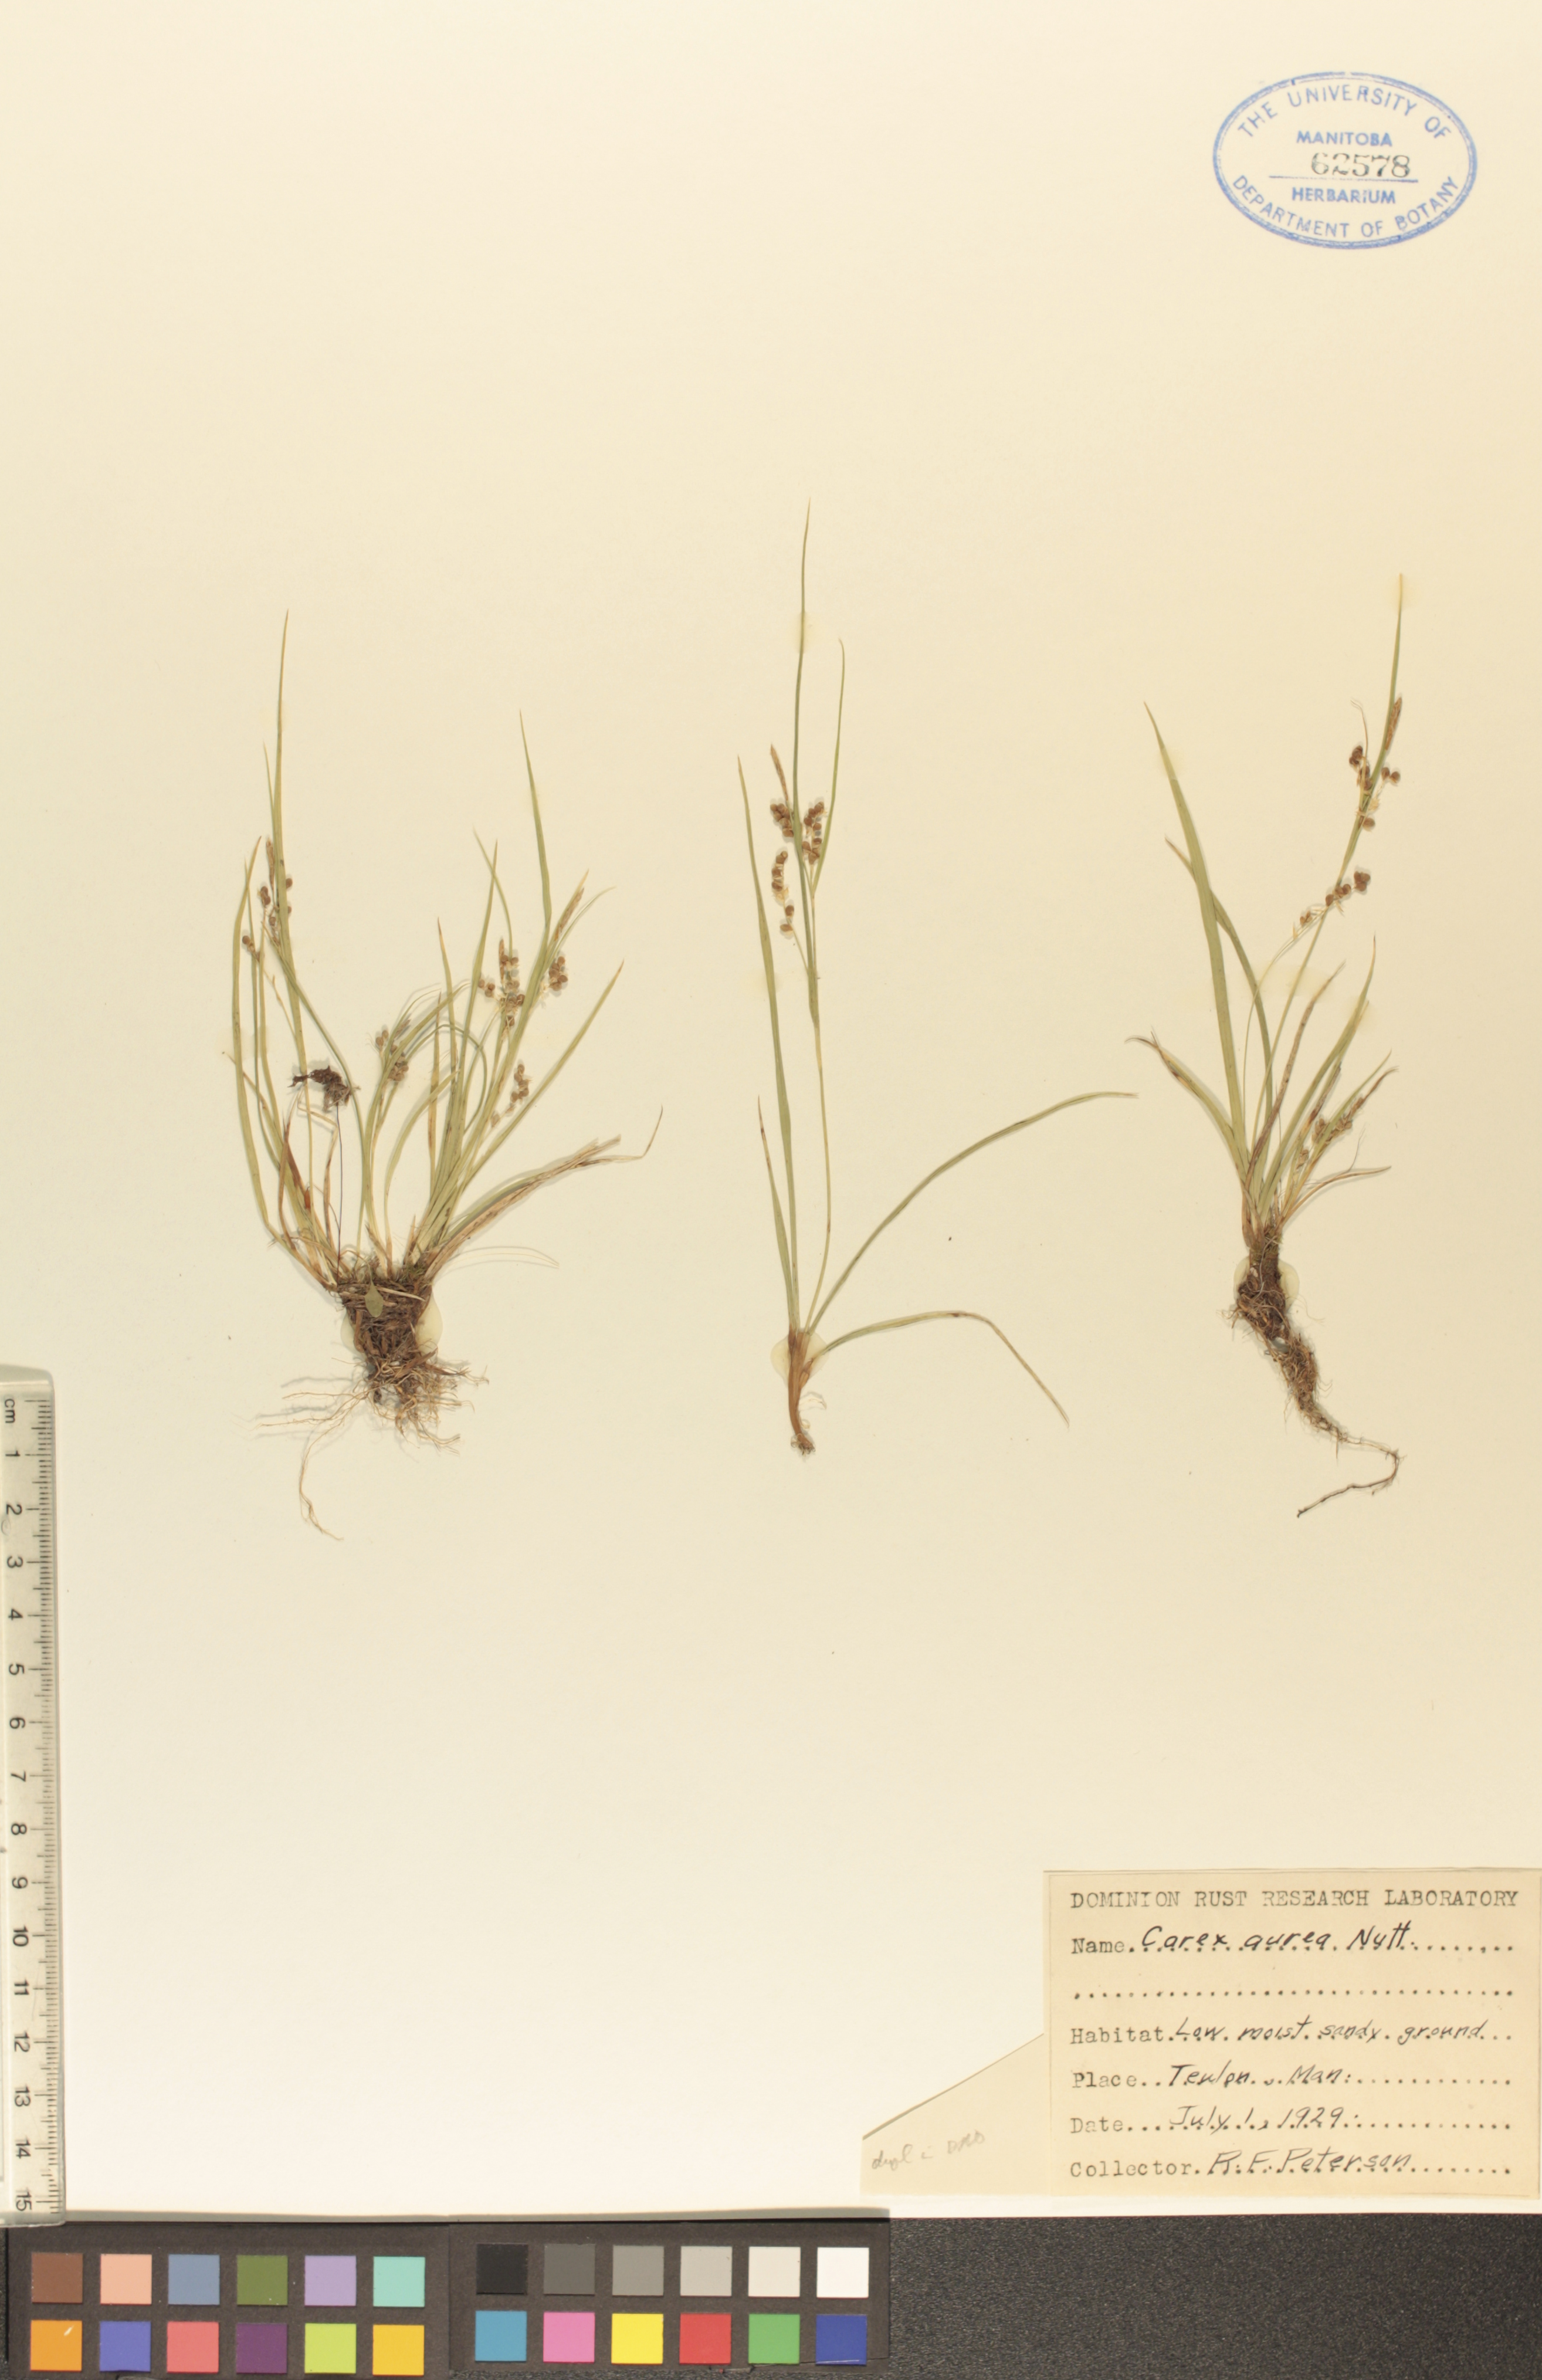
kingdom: Plantae
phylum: Tracheophyta
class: Liliopsida
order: Poales
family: Cyperaceae
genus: Carex
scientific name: Carex aurea
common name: Golden sedge
